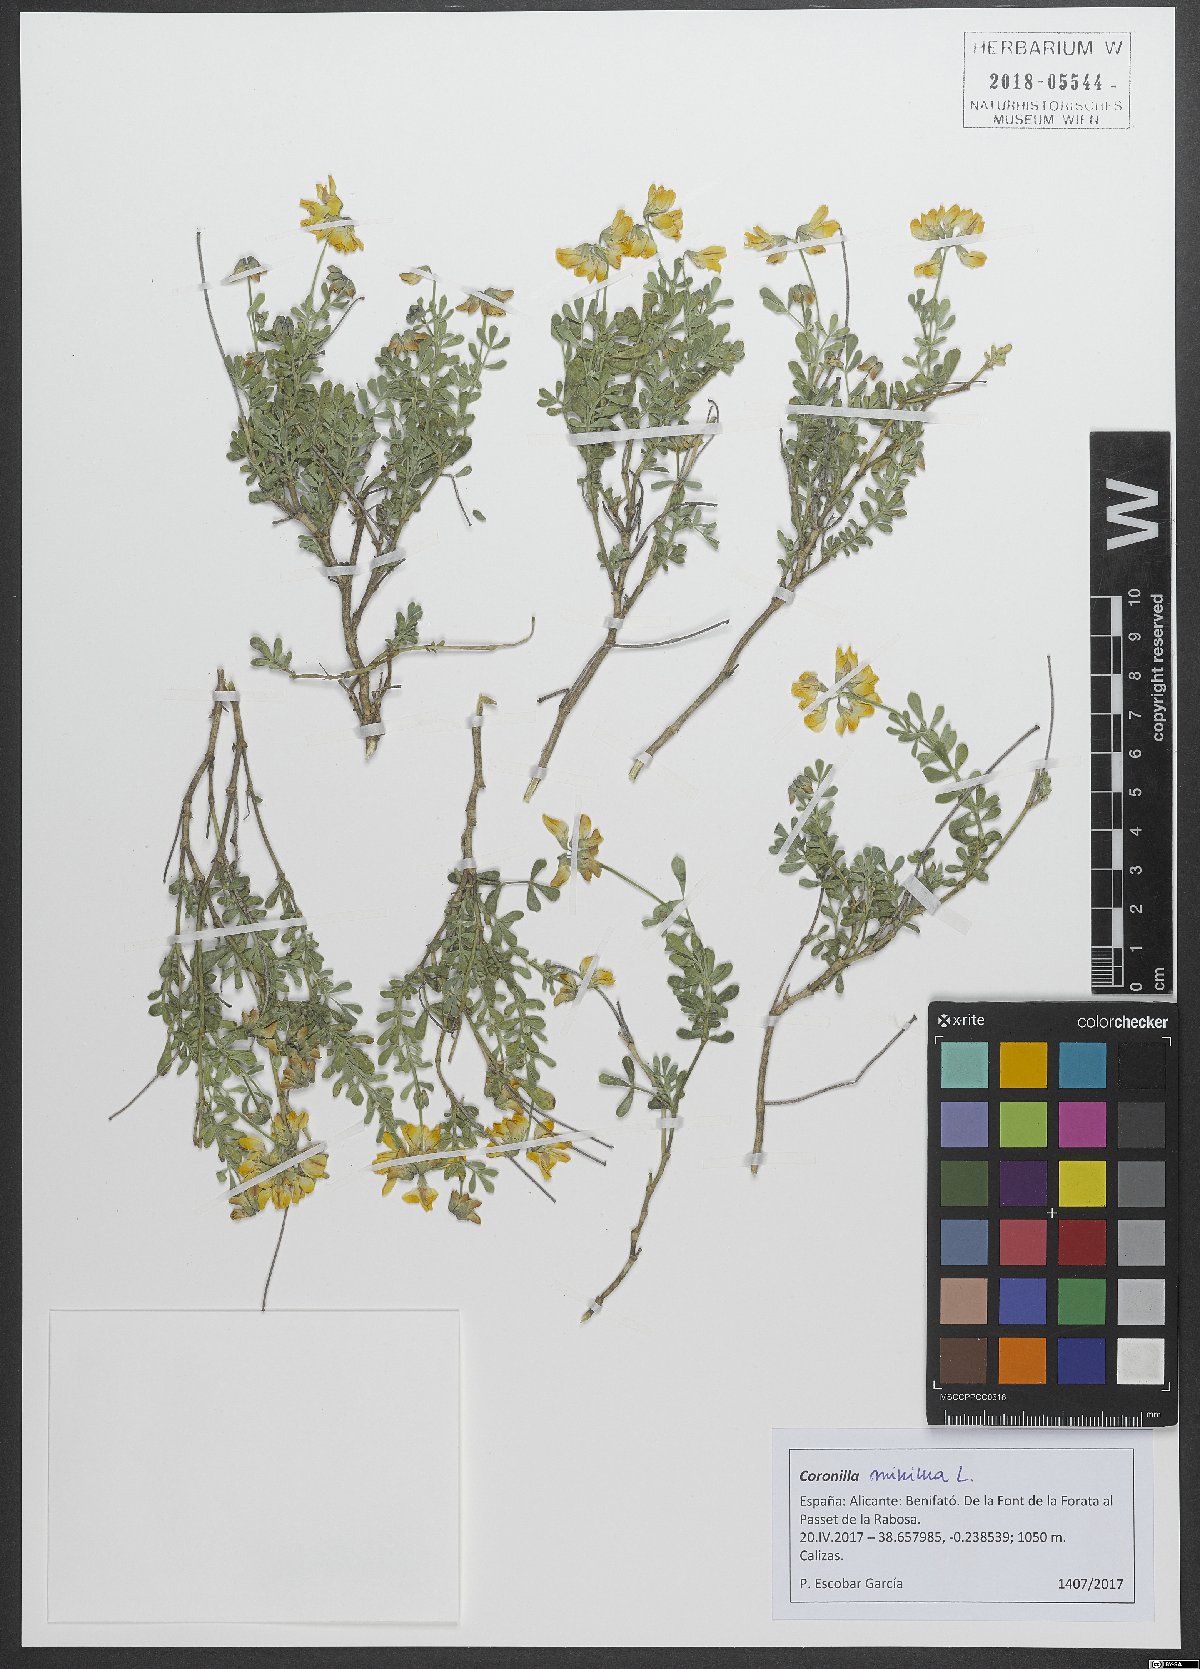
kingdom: Plantae
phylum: Tracheophyta
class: Magnoliopsida
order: Fabales
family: Fabaceae
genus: Coronilla
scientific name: Coronilla minima
